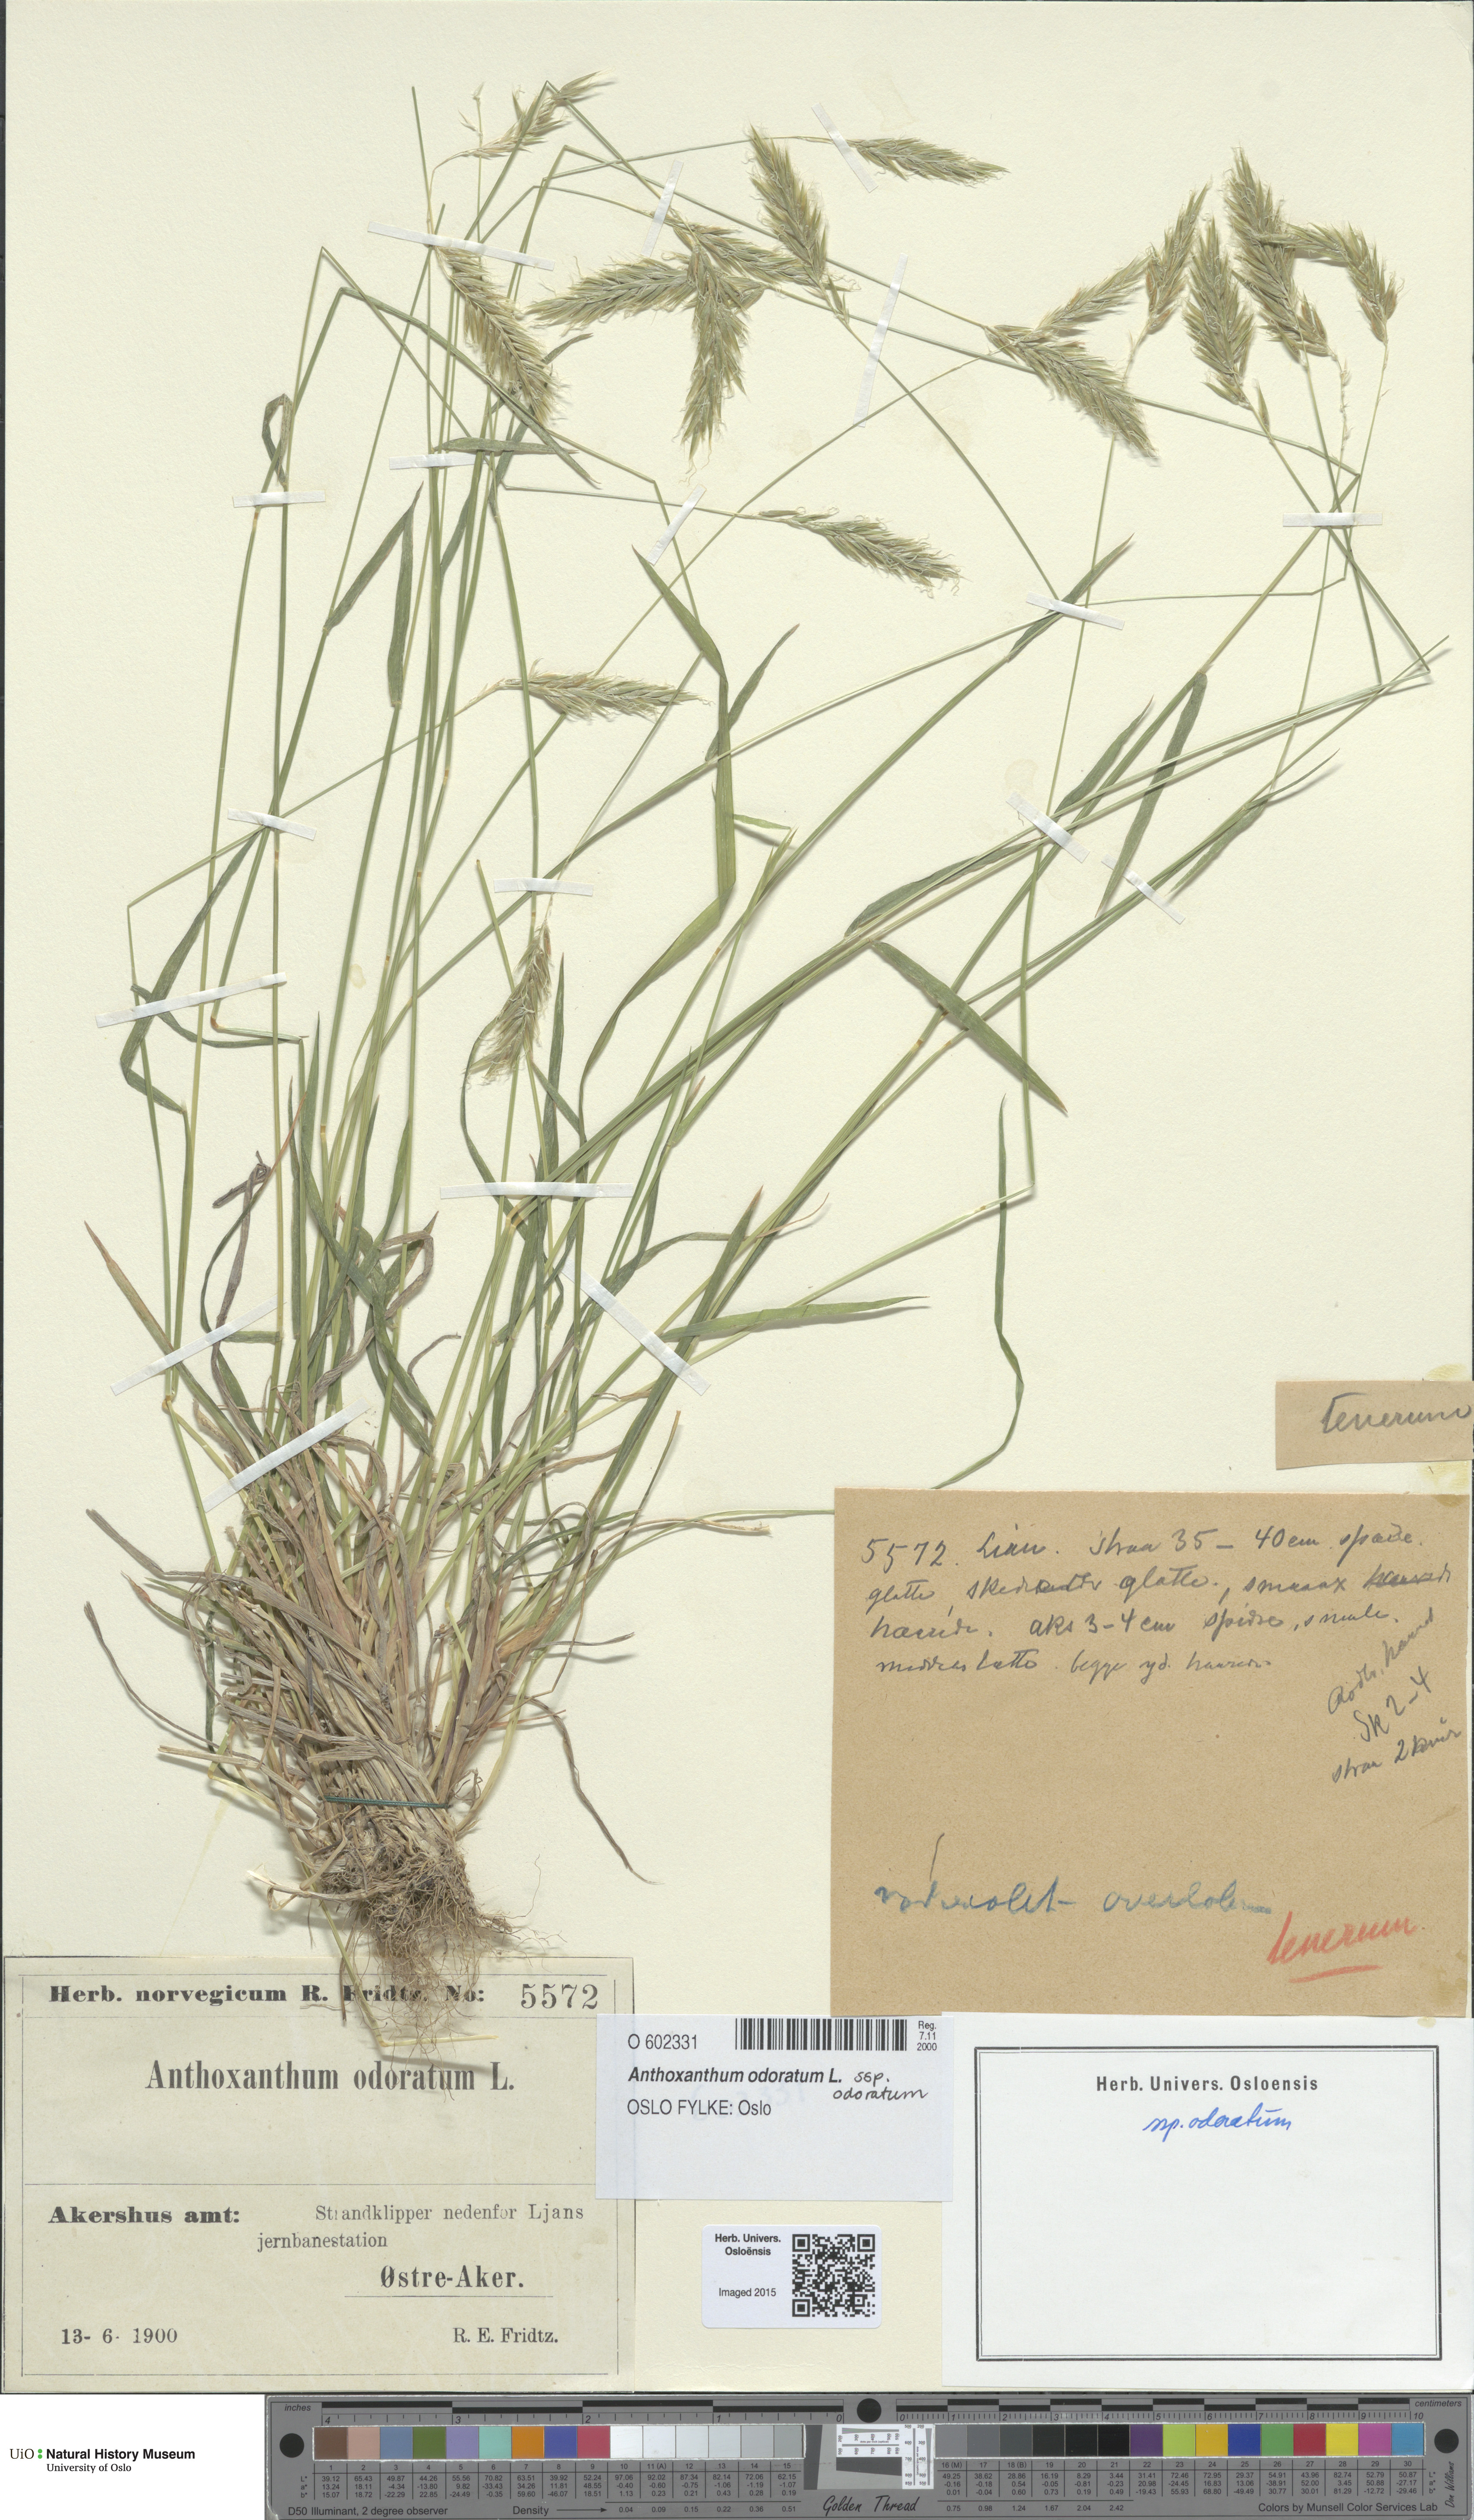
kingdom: Plantae
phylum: Tracheophyta
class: Liliopsida
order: Poales
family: Poaceae
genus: Anthoxanthum
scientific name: Anthoxanthum odoratum
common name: Sweet vernalgrass
